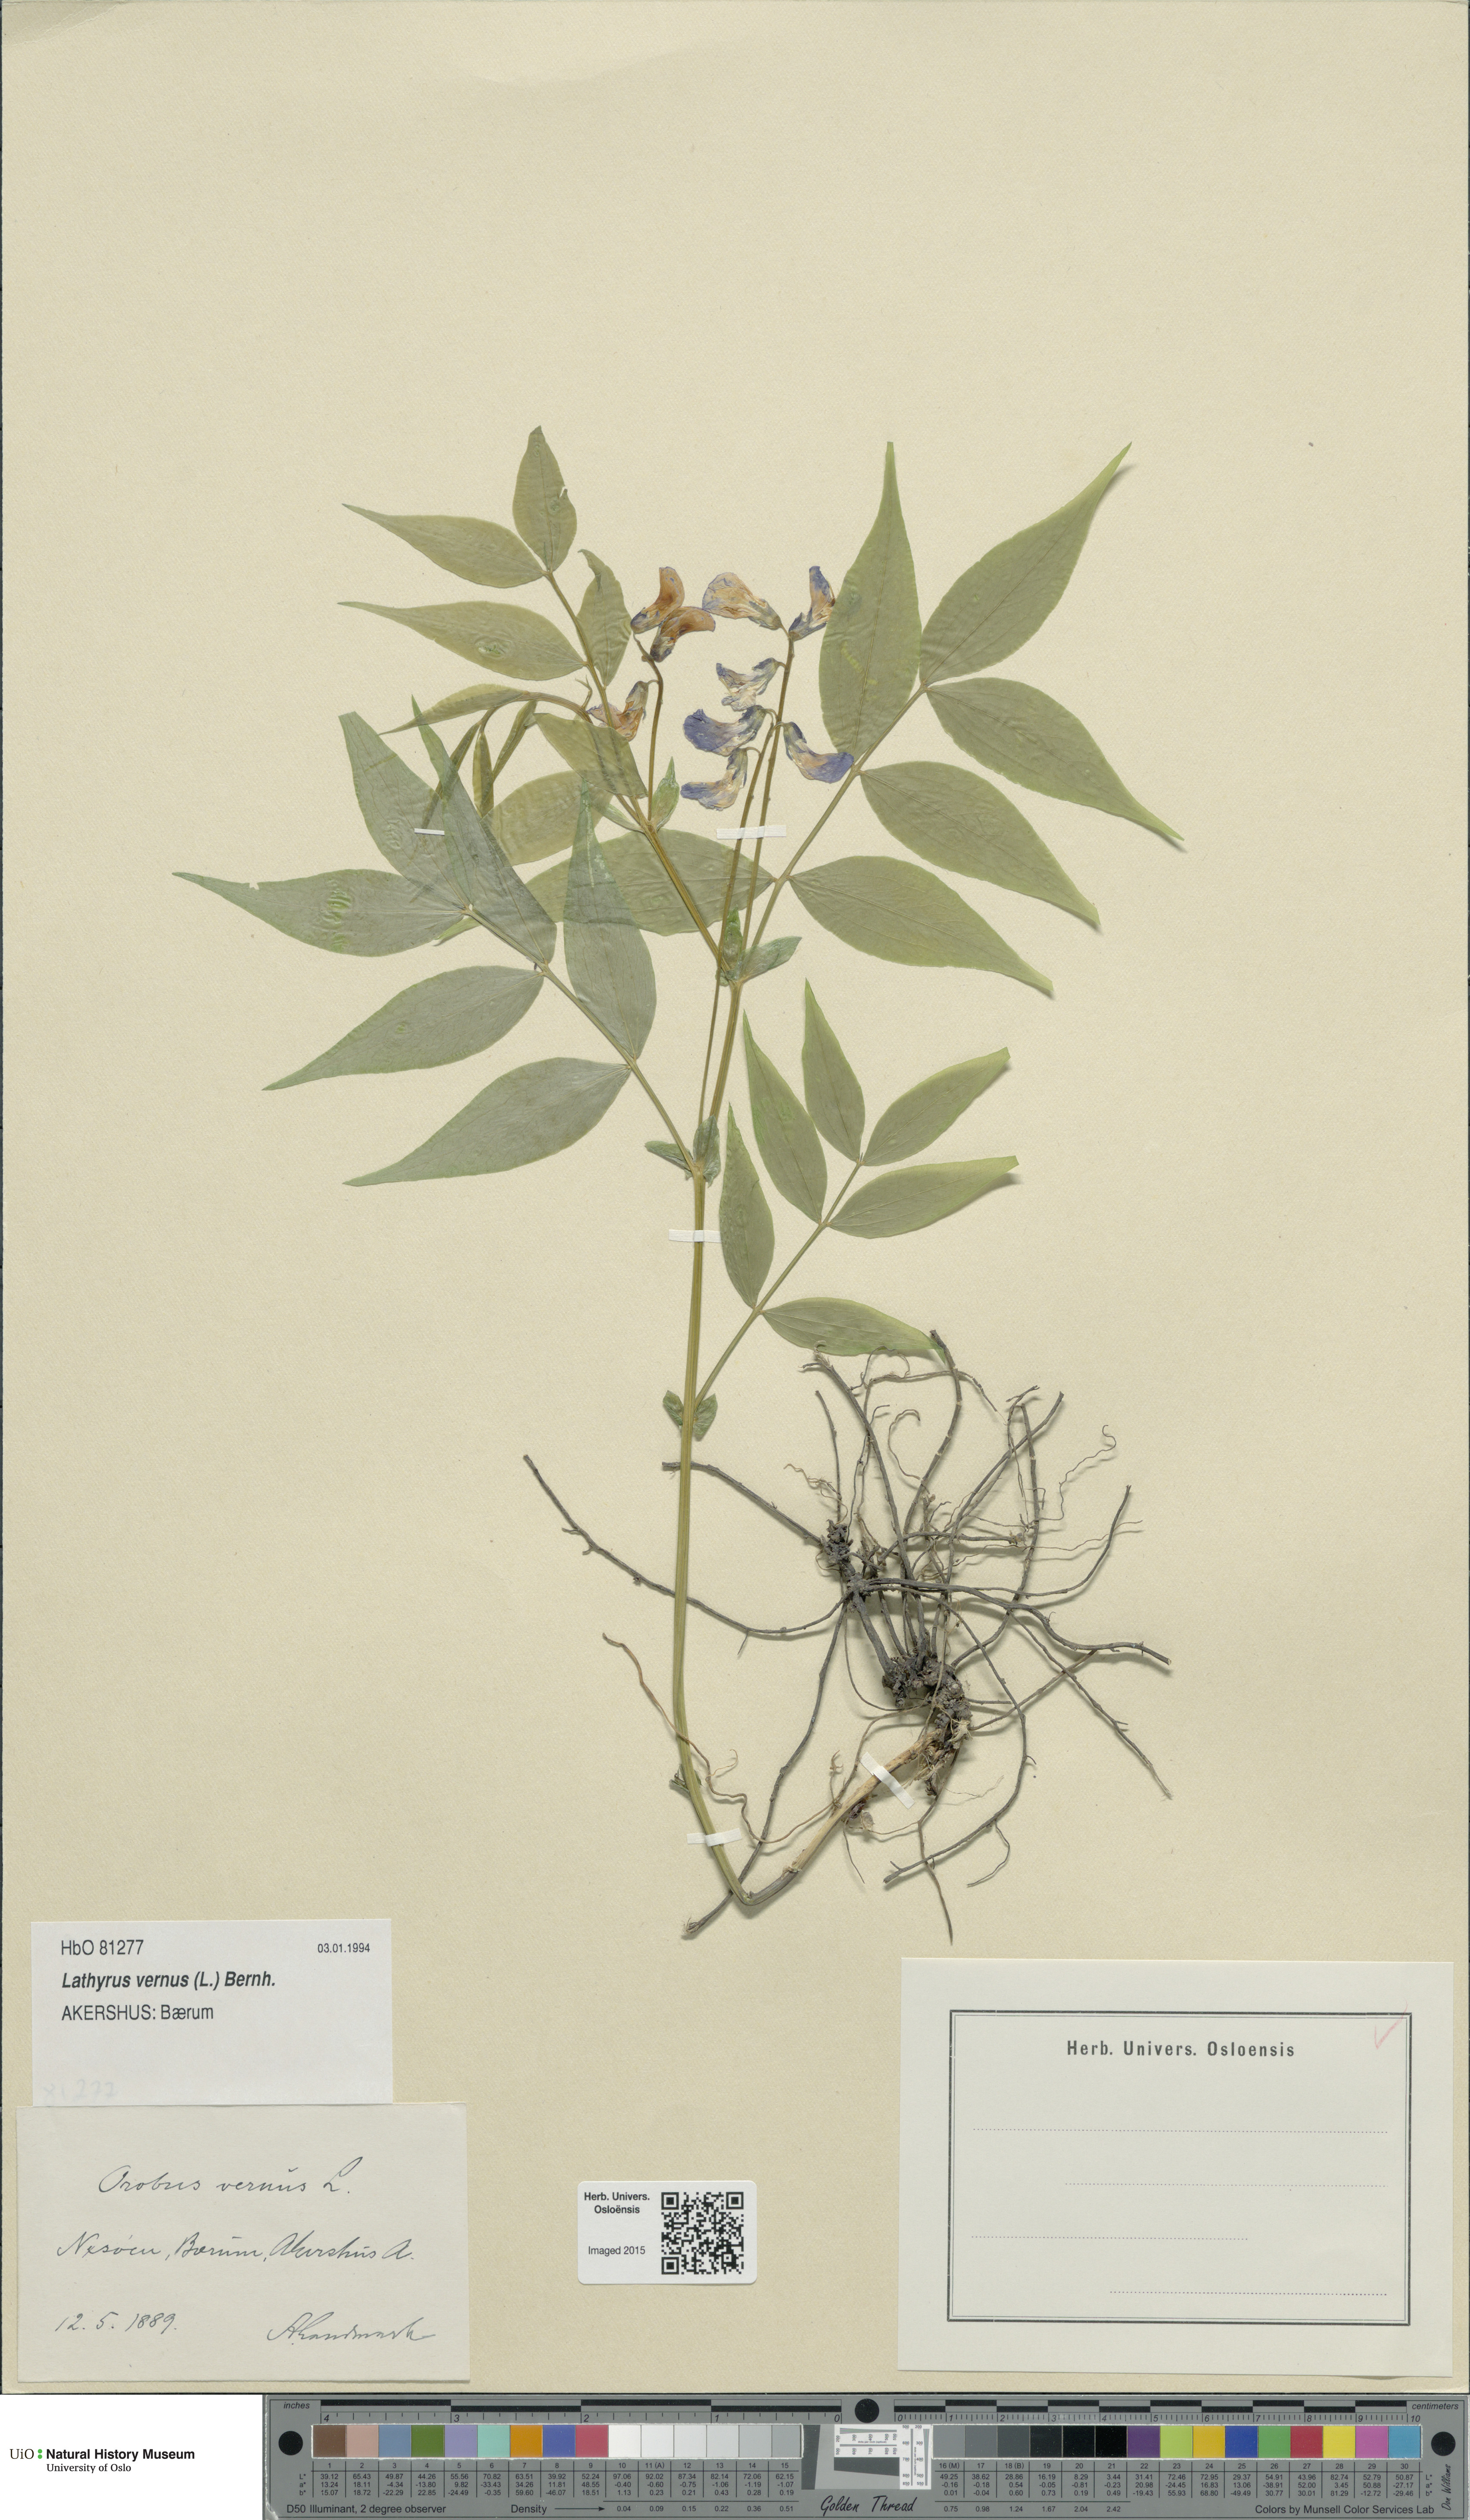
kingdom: Plantae
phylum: Tracheophyta
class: Magnoliopsida
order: Fabales
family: Fabaceae
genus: Lathyrus
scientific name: Lathyrus vernus
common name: Spring pea
